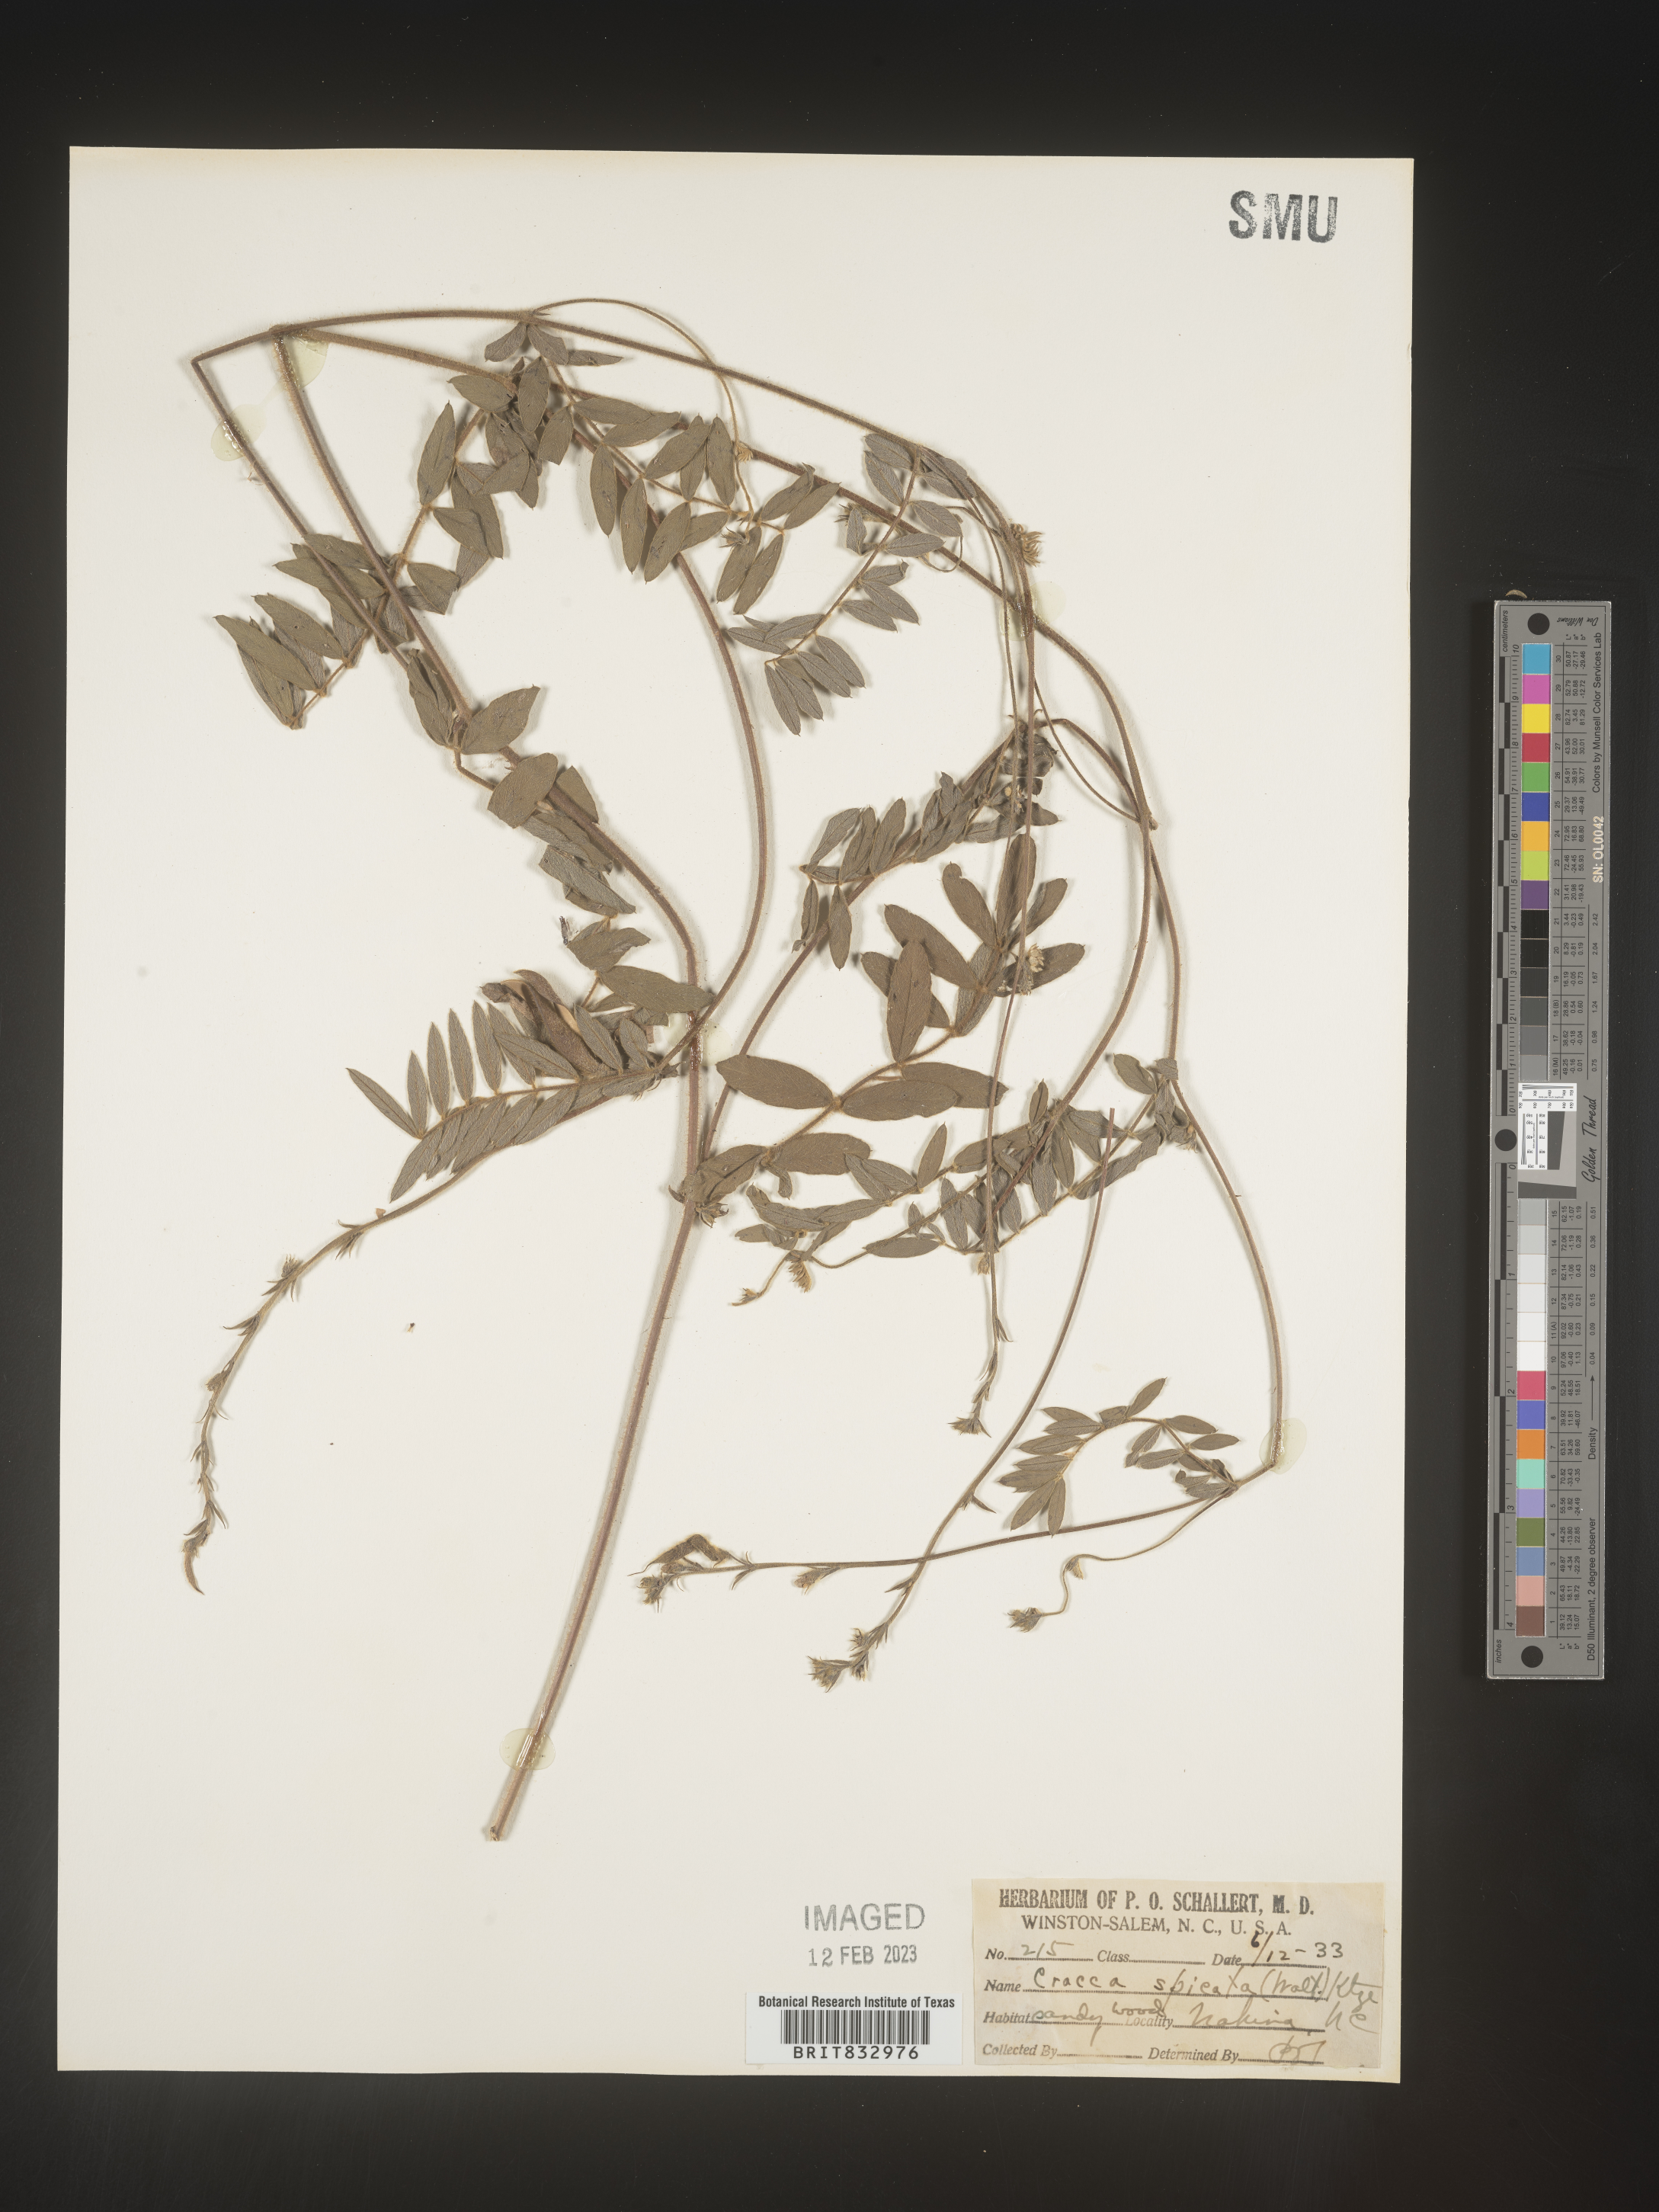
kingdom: Plantae
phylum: Tracheophyta
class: Magnoliopsida
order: Fabales
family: Fabaceae
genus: Tephrosia
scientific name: Tephrosia spicata
